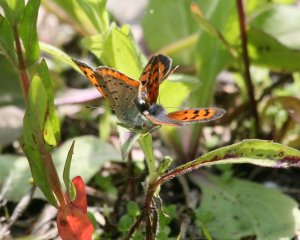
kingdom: Animalia
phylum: Arthropoda
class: Insecta
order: Lepidoptera
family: Lycaenidae
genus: Lycaena
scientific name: Lycaena phlaeas
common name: American Copper
